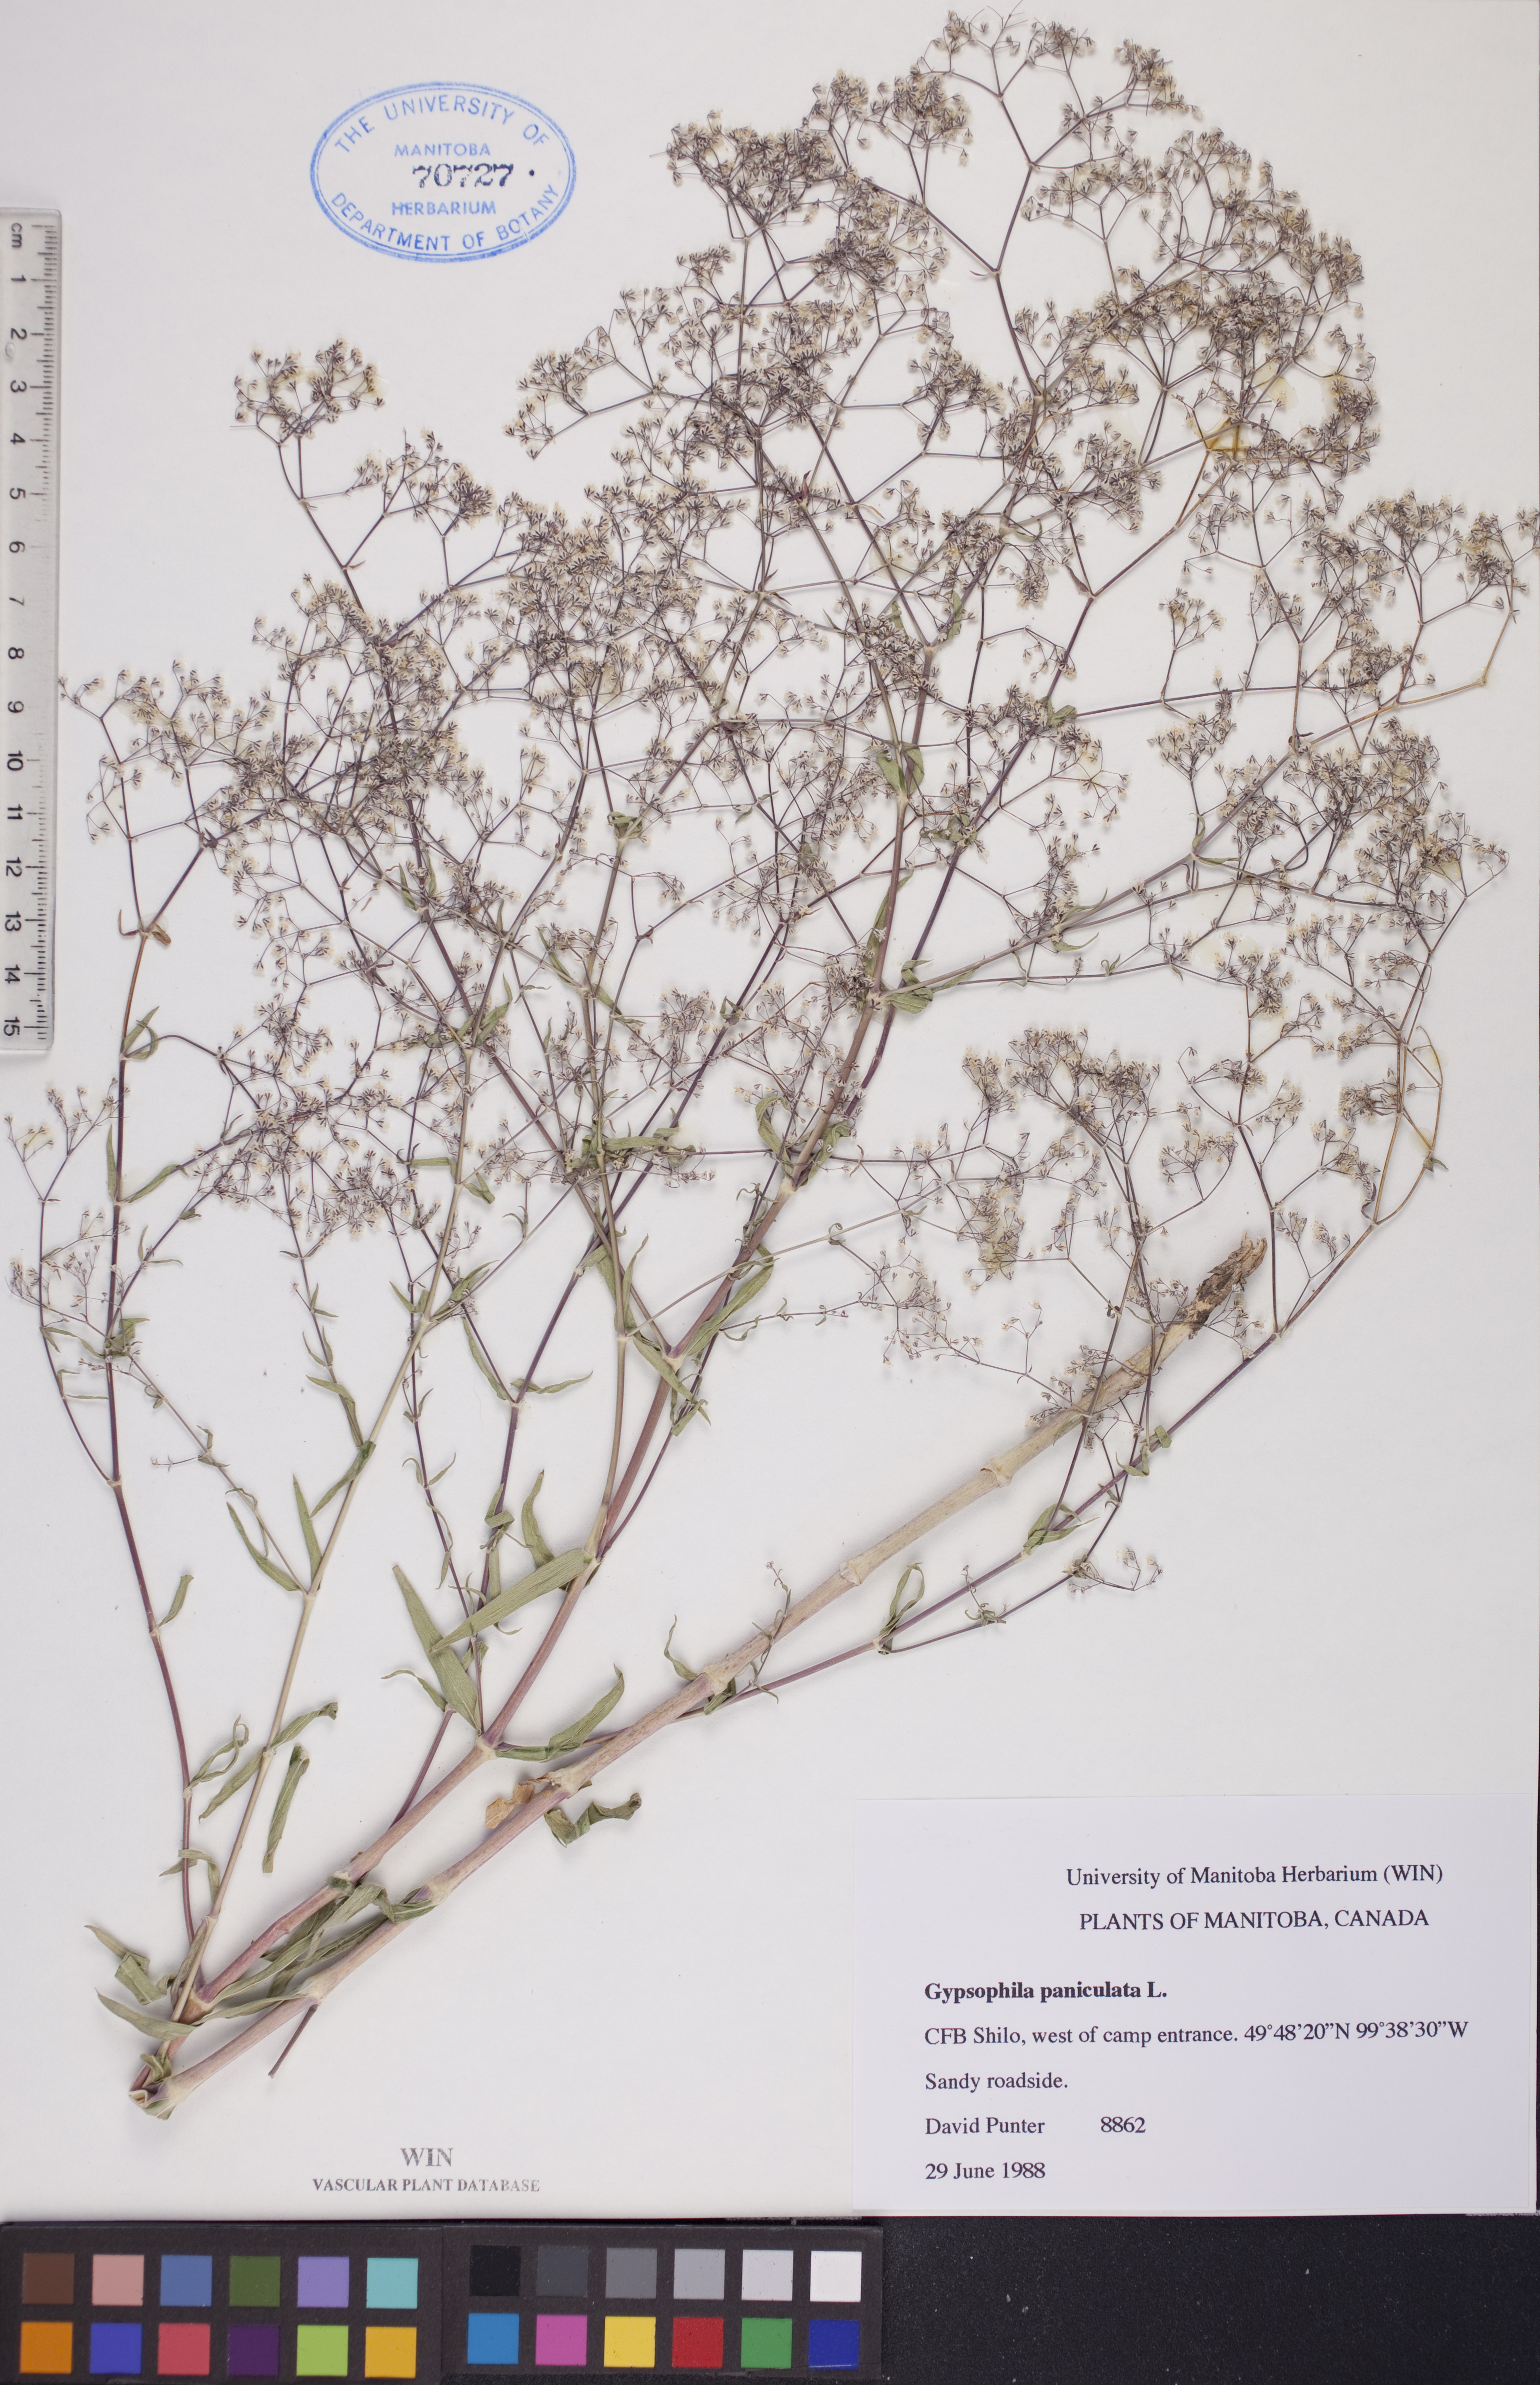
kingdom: Plantae
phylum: Tracheophyta
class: Magnoliopsida
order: Caryophyllales
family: Caryophyllaceae
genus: Gypsophila
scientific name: Gypsophila paniculata
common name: Baby's-breath
